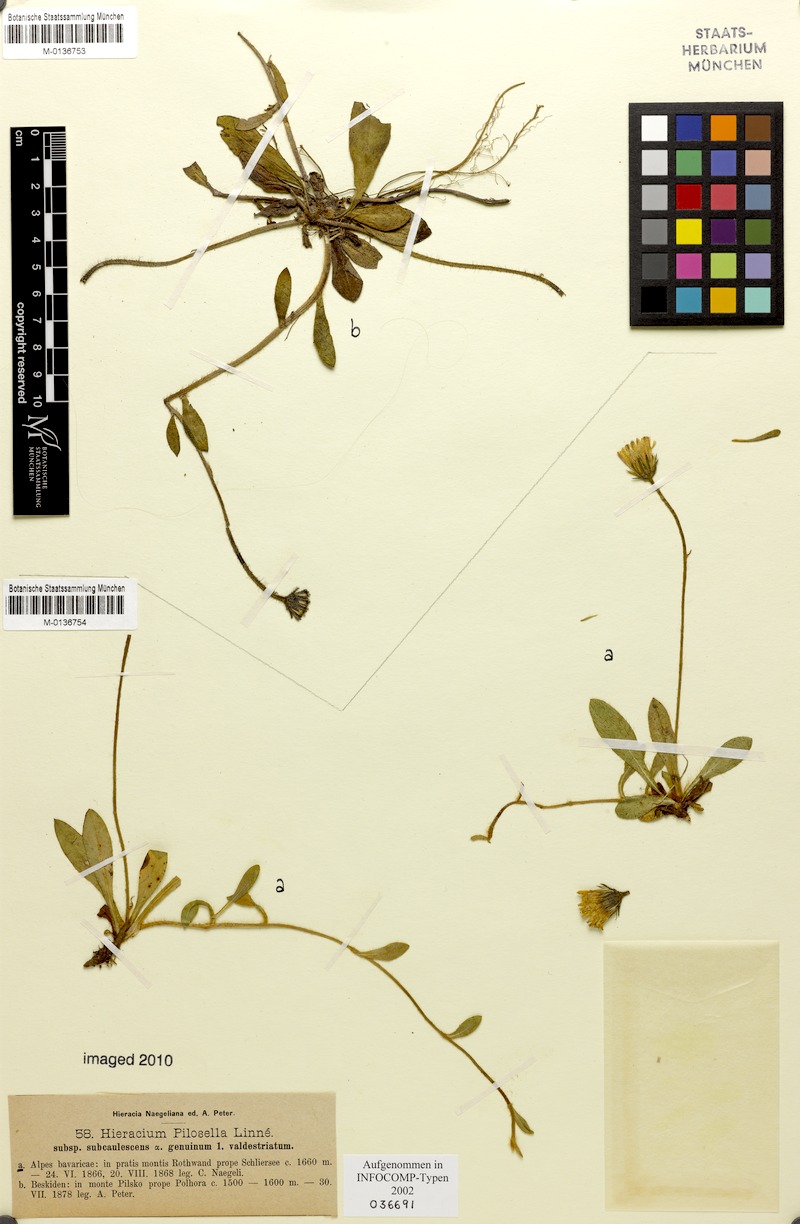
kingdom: Plantae
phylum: Tracheophyta
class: Magnoliopsida
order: Asterales
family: Asteraceae
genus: Pilosella
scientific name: Pilosella officinarum
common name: Mouse-ear hawkweed
